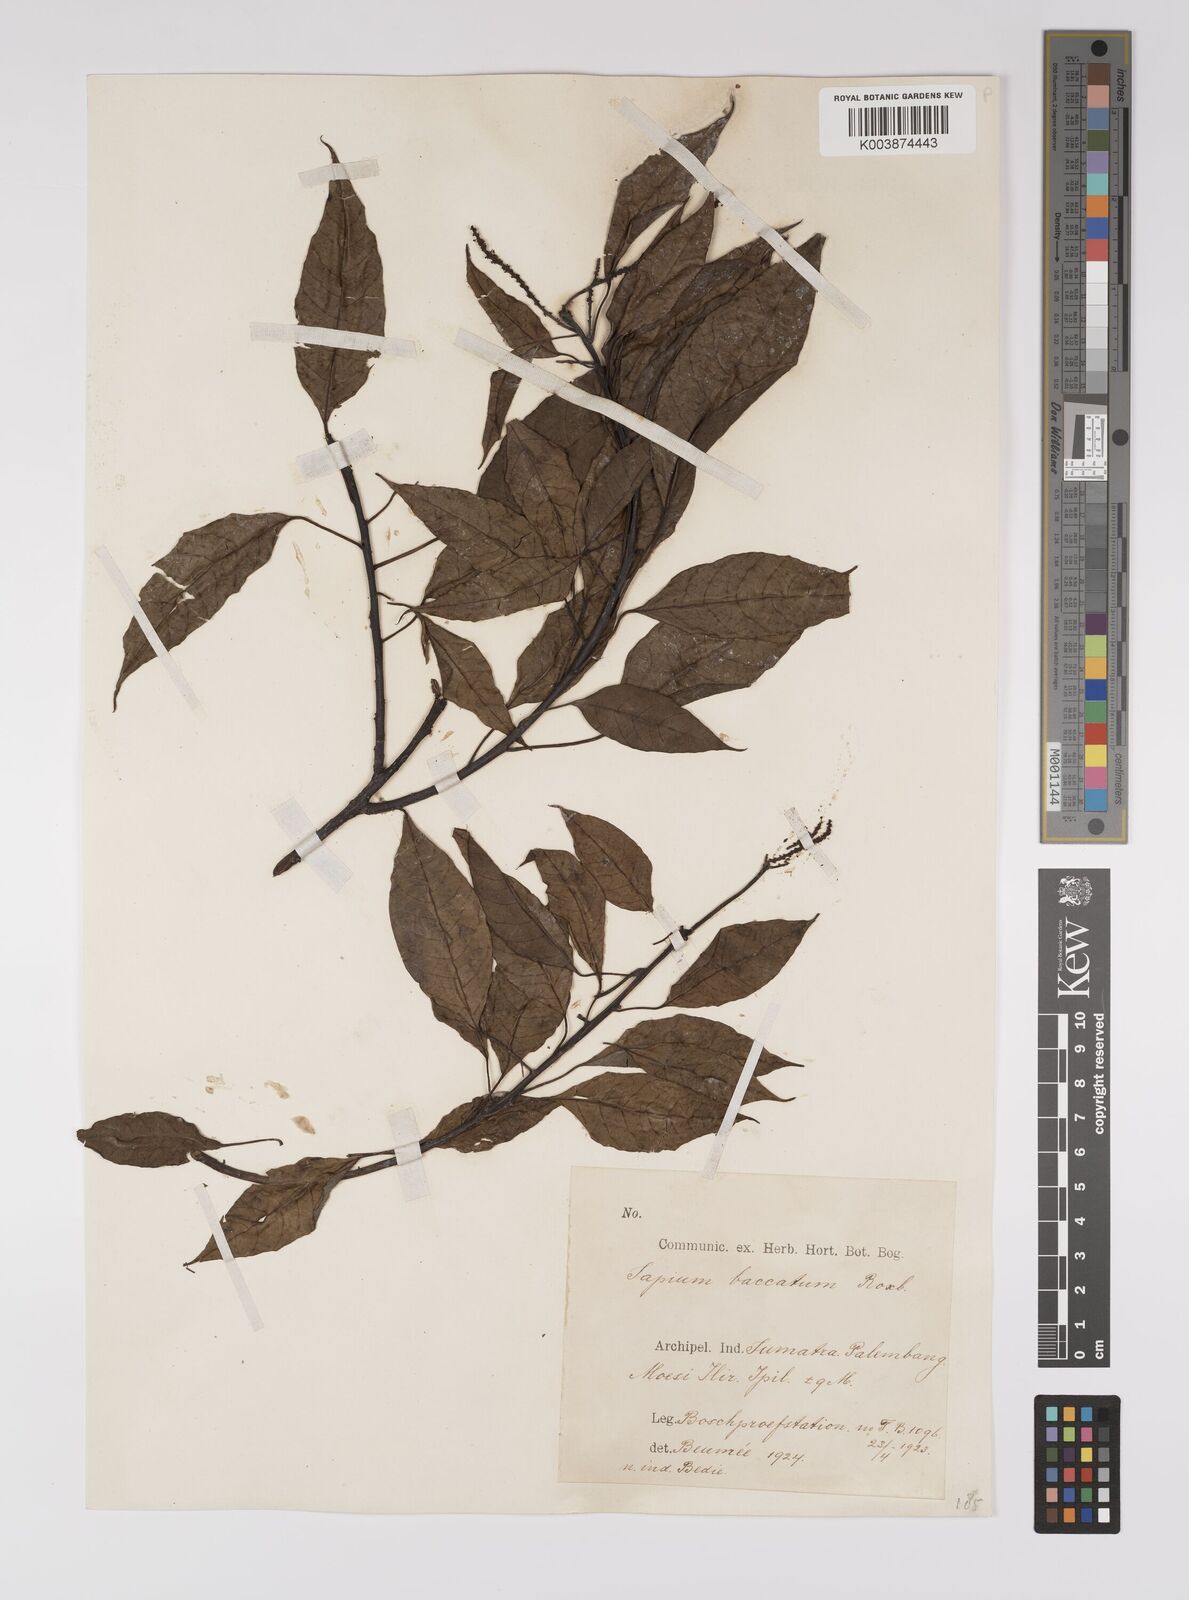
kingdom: Plantae
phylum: Tracheophyta
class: Magnoliopsida
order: Malpighiales
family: Euphorbiaceae
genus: Balakata
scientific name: Balakata baccata
